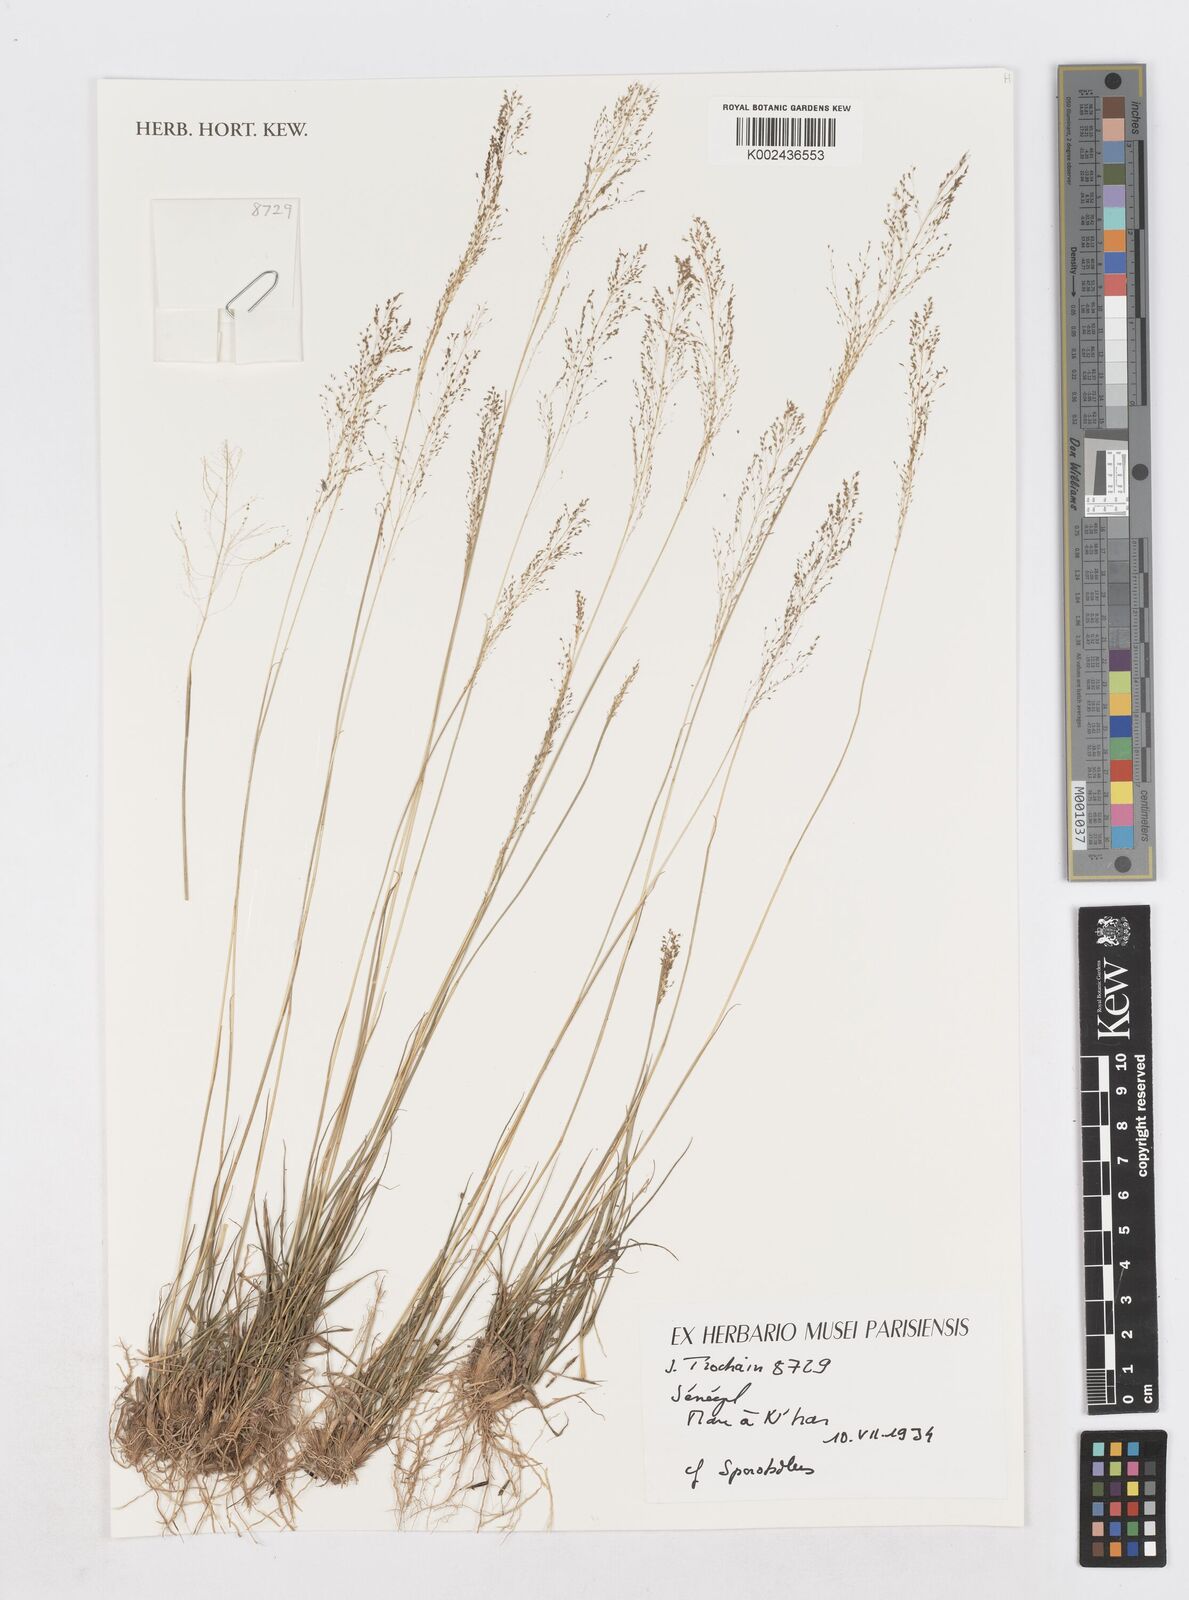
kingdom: Plantae
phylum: Tracheophyta
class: Liliopsida
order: Poales
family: Poaceae
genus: Sporobolus
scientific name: Sporobolus
